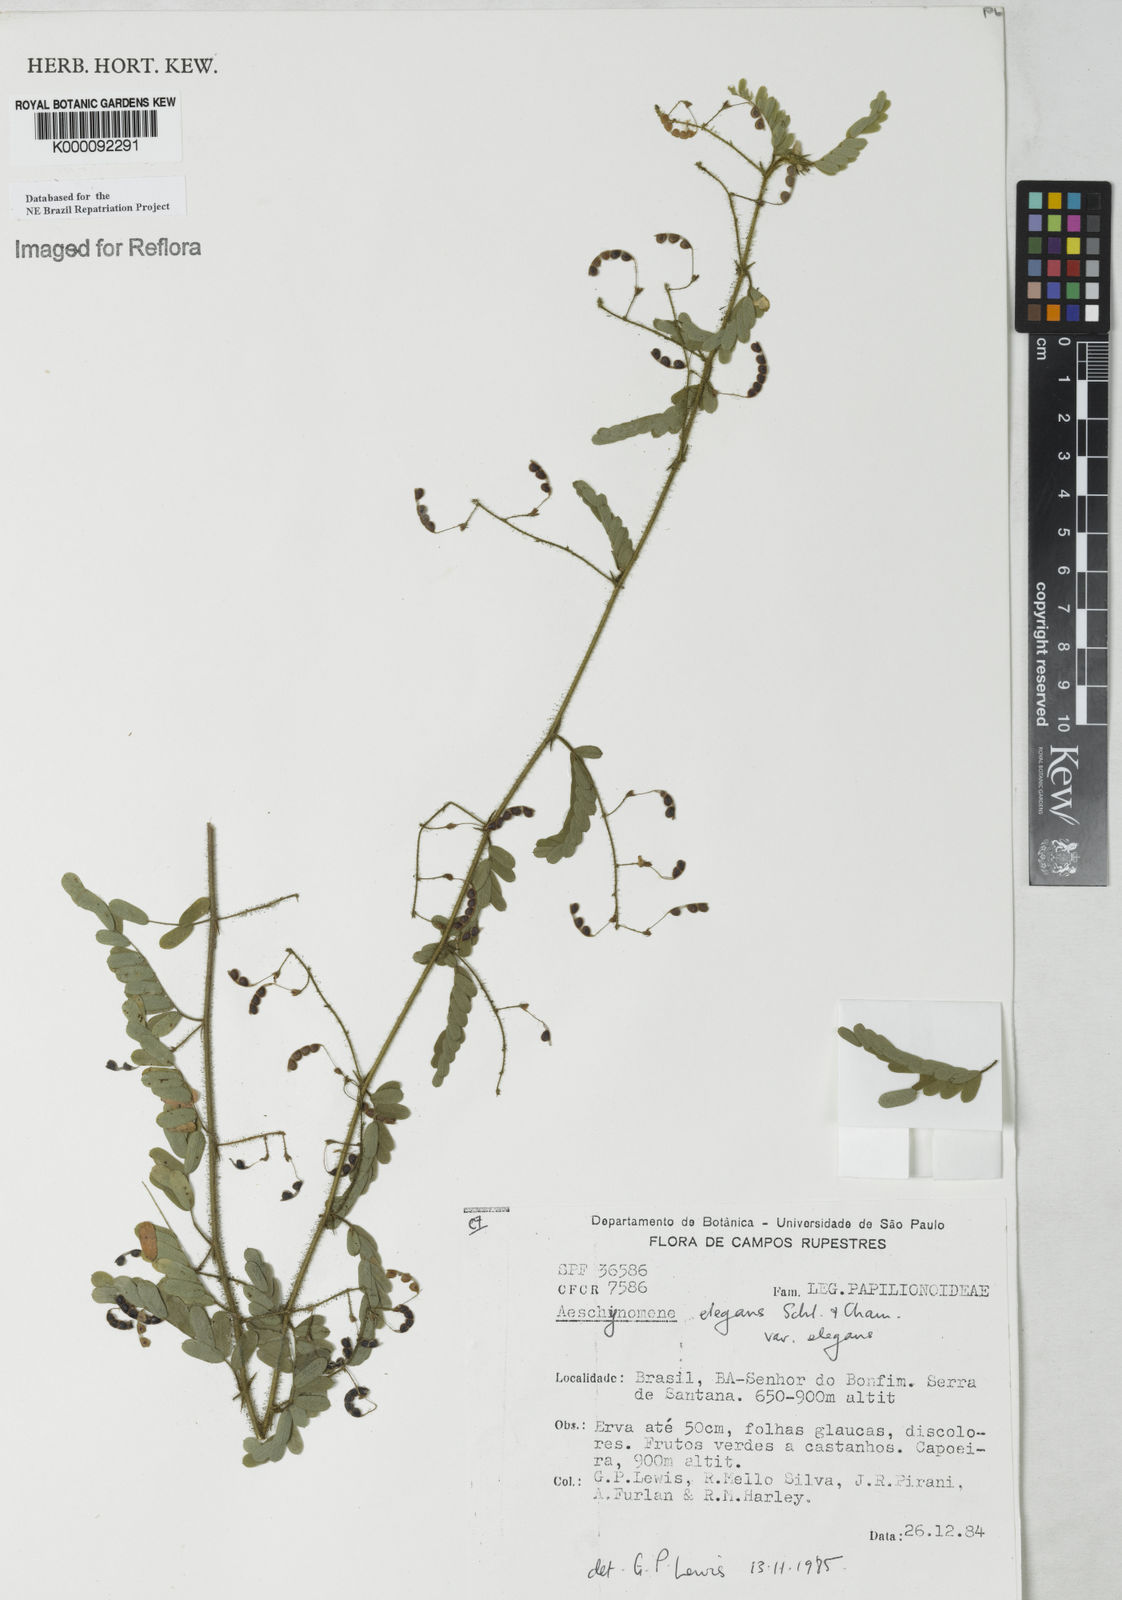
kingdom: Plantae
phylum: Tracheophyta
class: Magnoliopsida
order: Fabales
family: Fabaceae
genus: Ctenodon
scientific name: Ctenodon elegans
